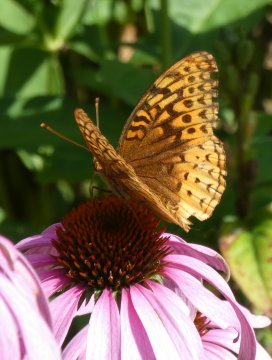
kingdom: Animalia
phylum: Arthropoda
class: Insecta
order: Lepidoptera
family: Nymphalidae
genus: Speyeria
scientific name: Speyeria cybele
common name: Great Spangled Fritillary
